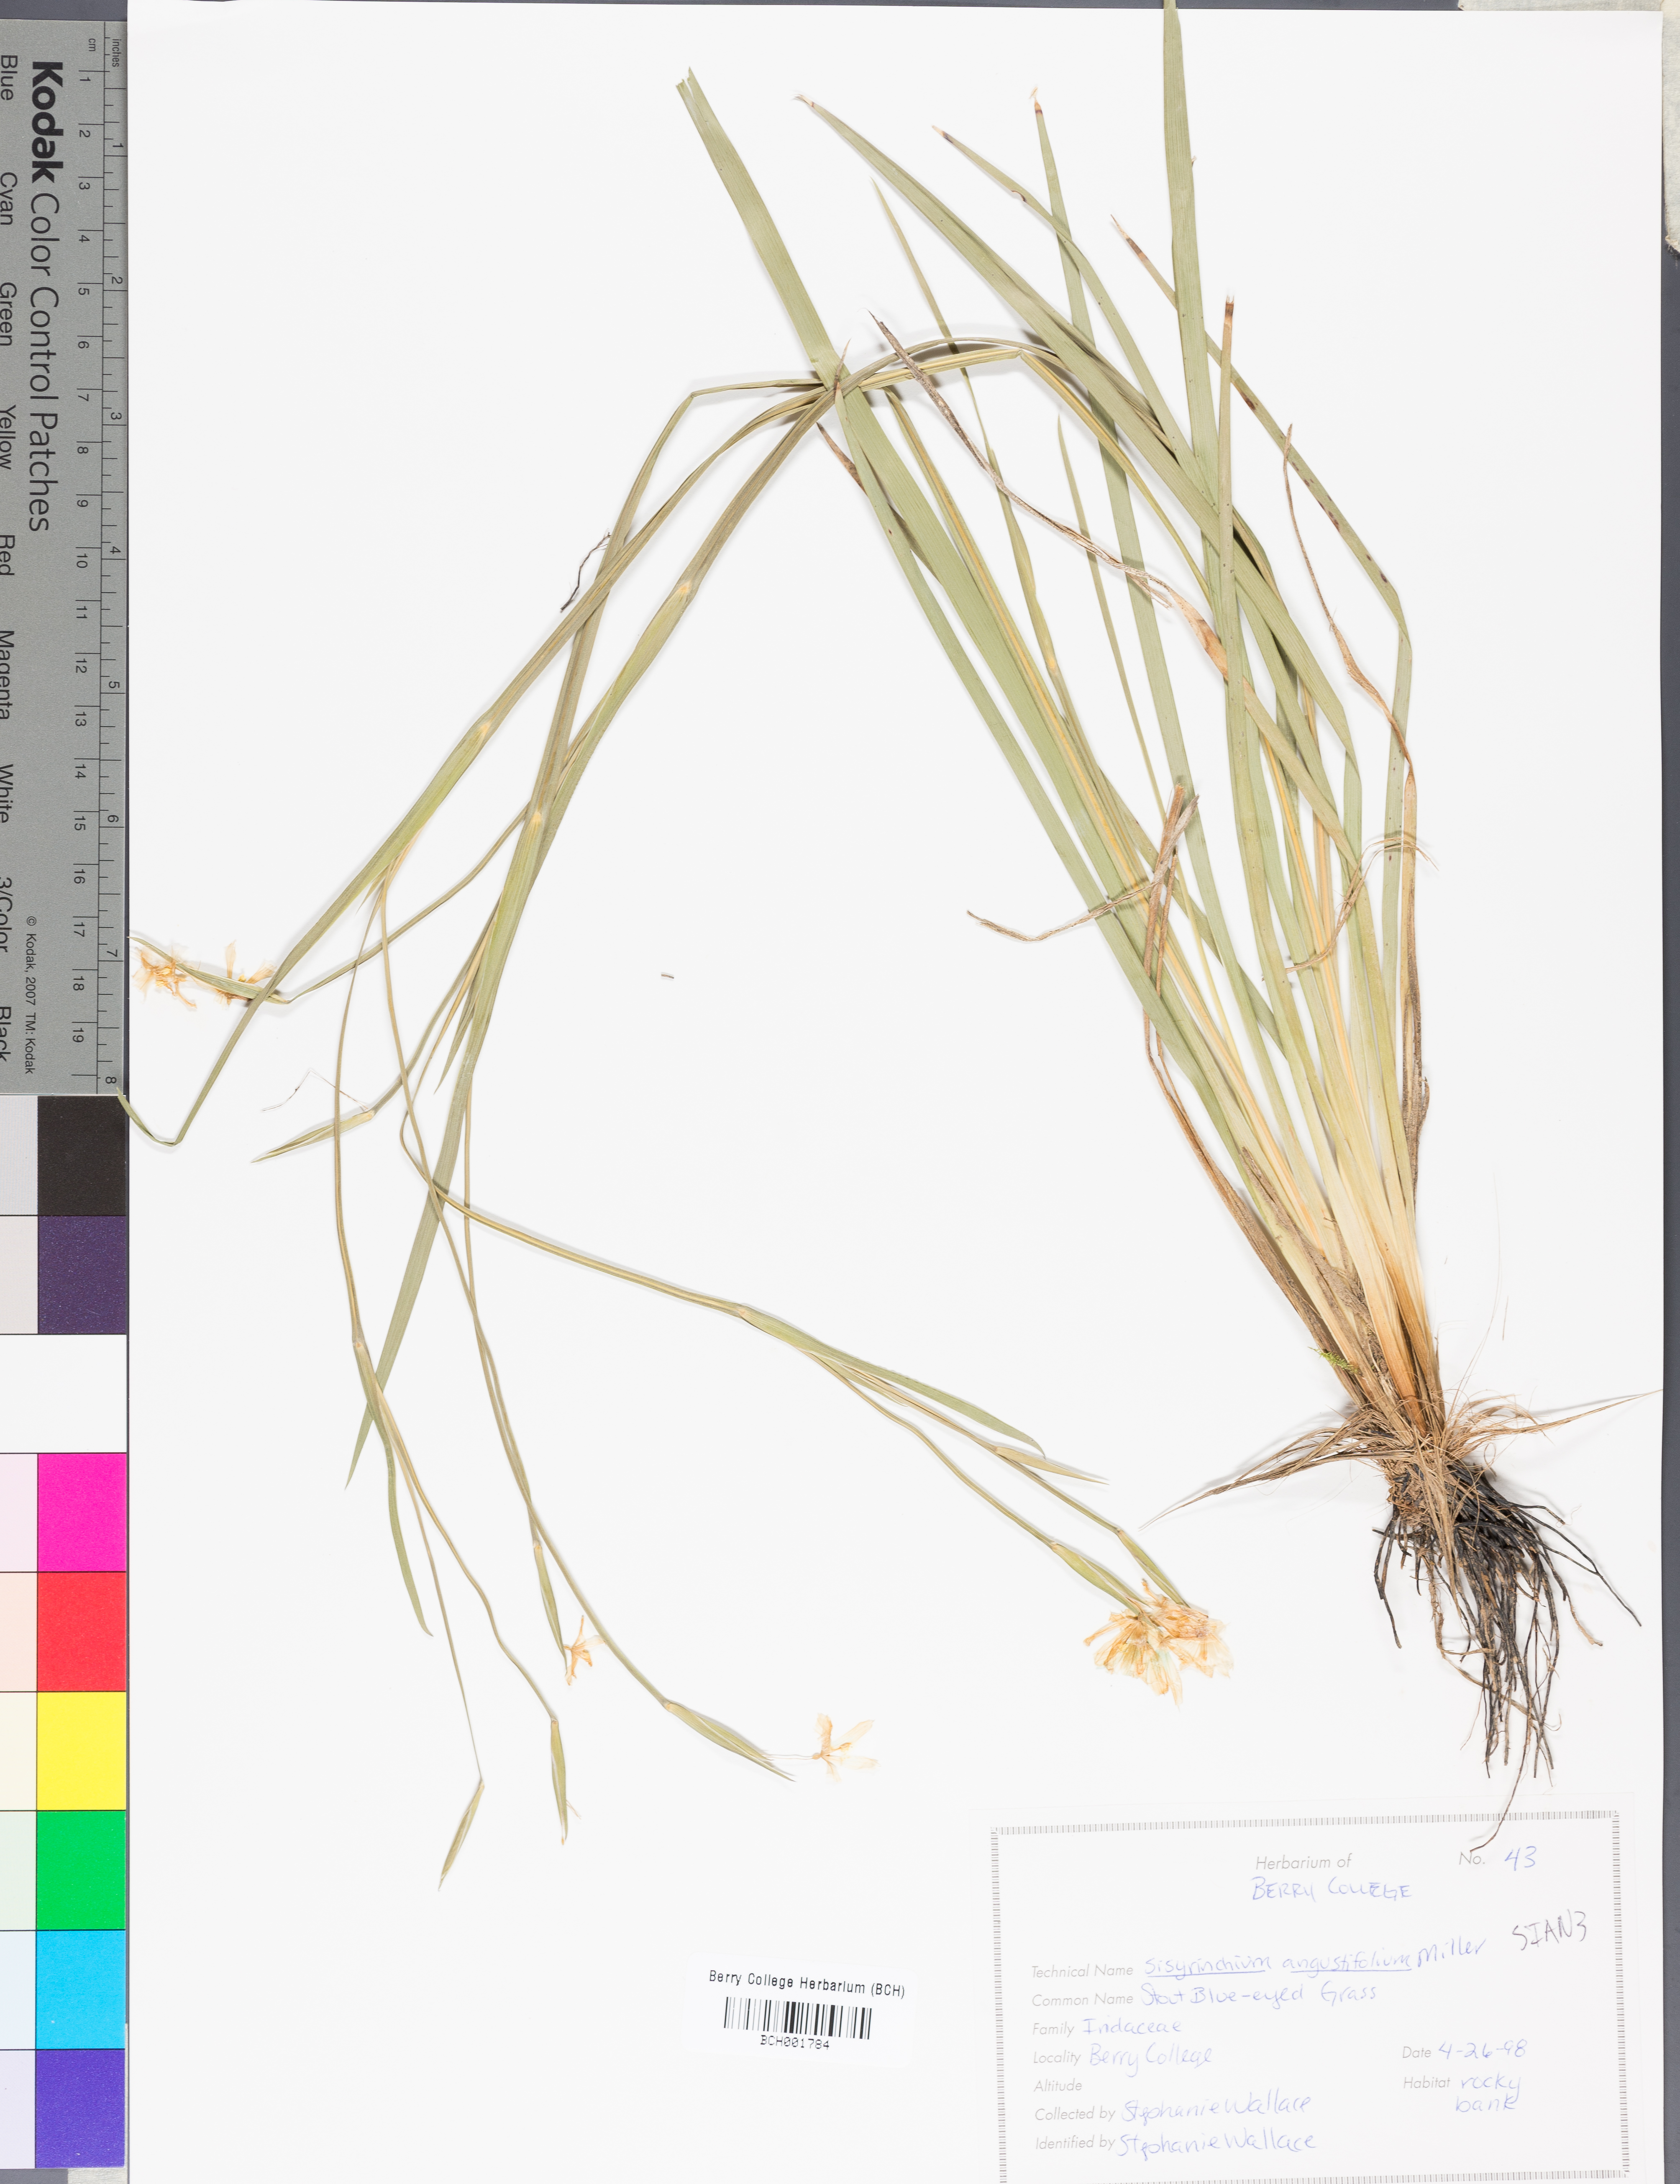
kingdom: Plantae
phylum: Tracheophyta
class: Liliopsida
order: Asparagales
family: Iridaceae
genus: Sisyrinchium
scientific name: Sisyrinchium angustifolium
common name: Narrow-leaf blue-eyed-grass
